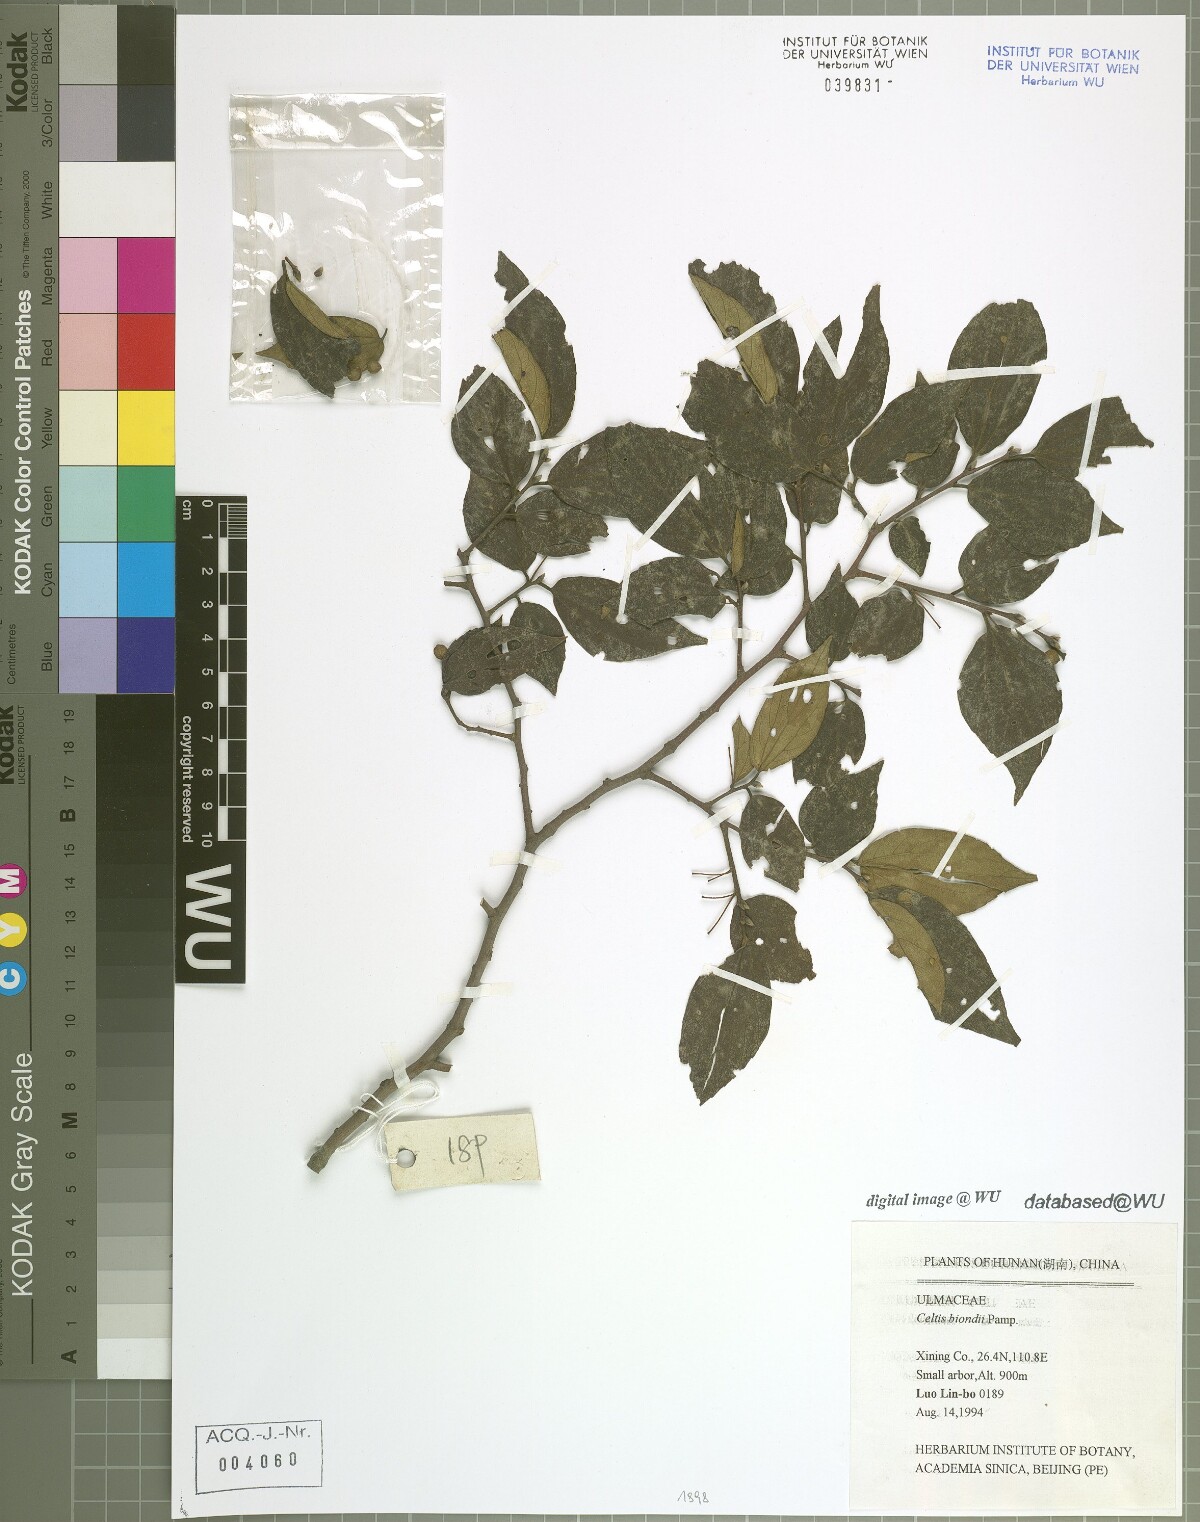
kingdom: Plantae
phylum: Tracheophyta
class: Magnoliopsida
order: Rosales
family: Cannabaceae
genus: Celtis
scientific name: Celtis biondii
